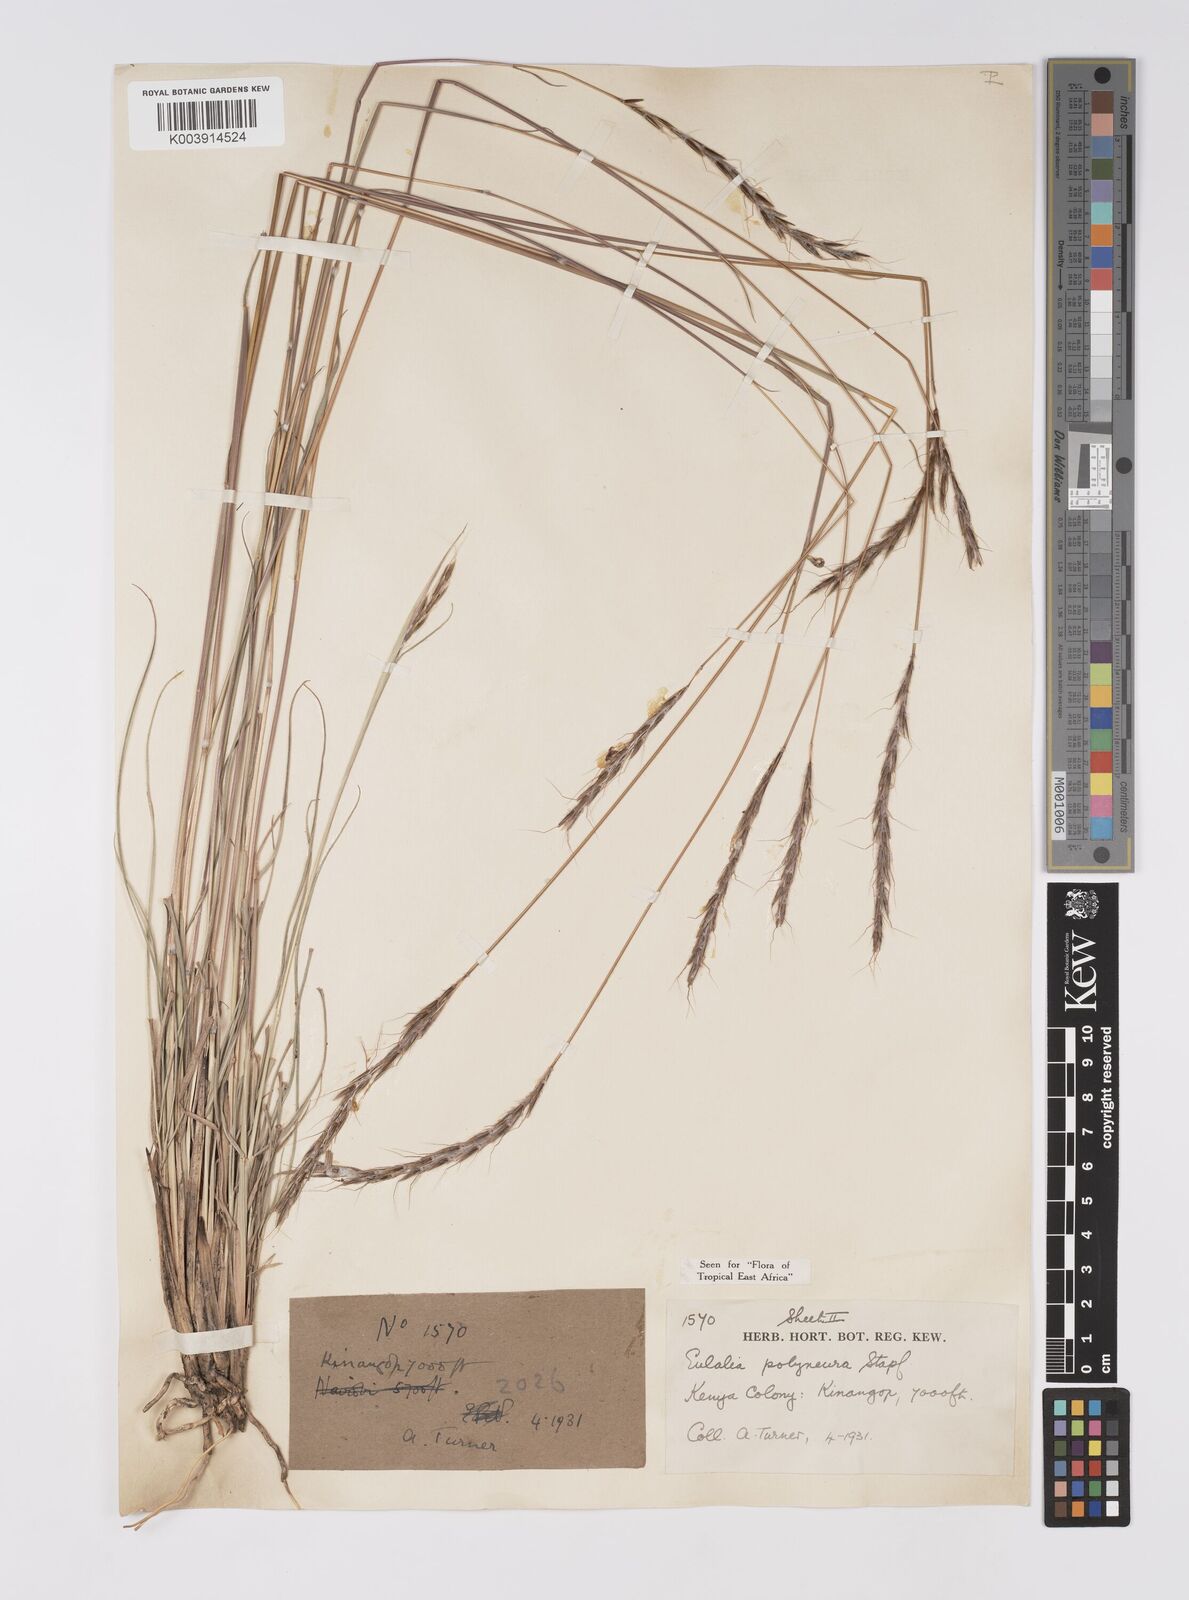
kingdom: Plantae
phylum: Tracheophyta
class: Liliopsida
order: Poales
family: Poaceae
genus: Eulalia
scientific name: Eulalia polyneura
